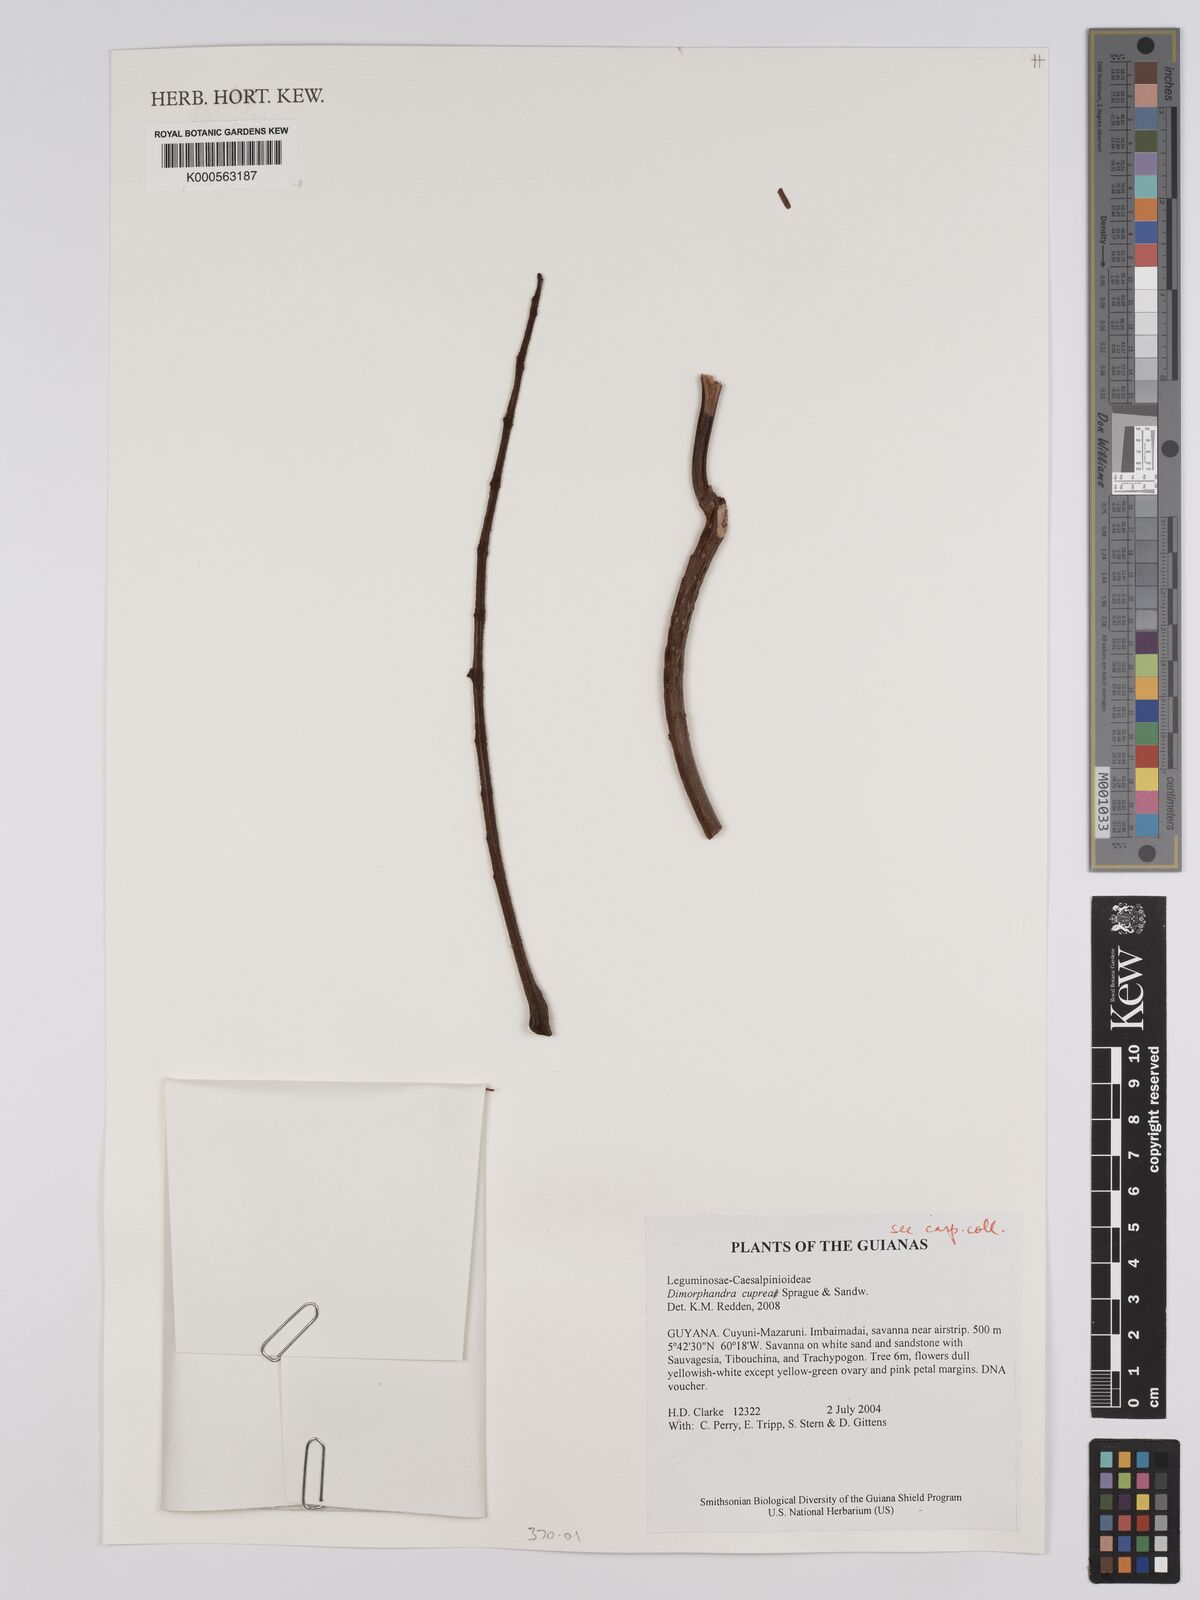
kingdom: Plantae
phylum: Tracheophyta
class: Magnoliopsida
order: Fabales
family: Fabaceae
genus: Dimorphandra
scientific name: Dimorphandra
